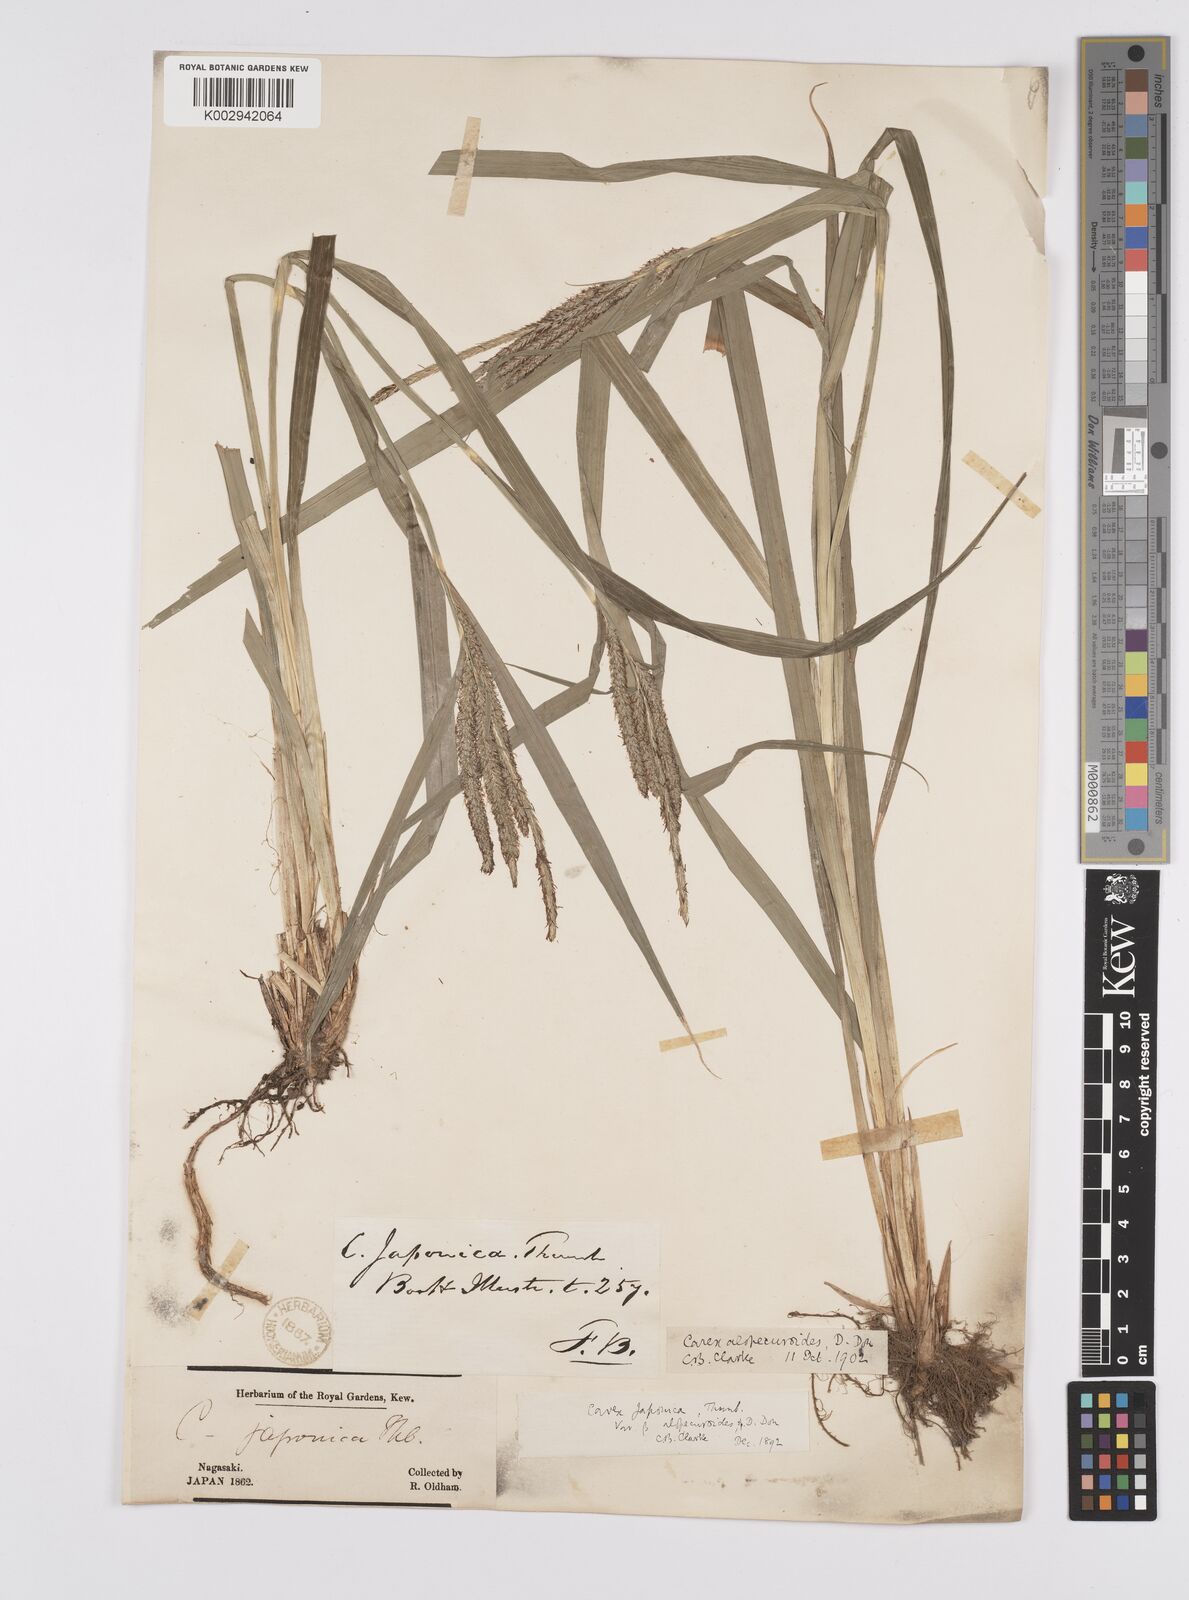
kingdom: Plantae
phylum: Tracheophyta
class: Liliopsida
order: Poales
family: Cyperaceae
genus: Carex
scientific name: Carex japonica
